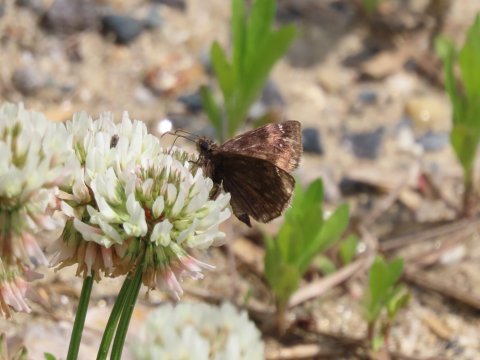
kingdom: Animalia
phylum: Arthropoda
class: Insecta
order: Lepidoptera
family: Hesperiidae
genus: Gesta
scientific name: Gesta
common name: Wild Indigo Duskywing
